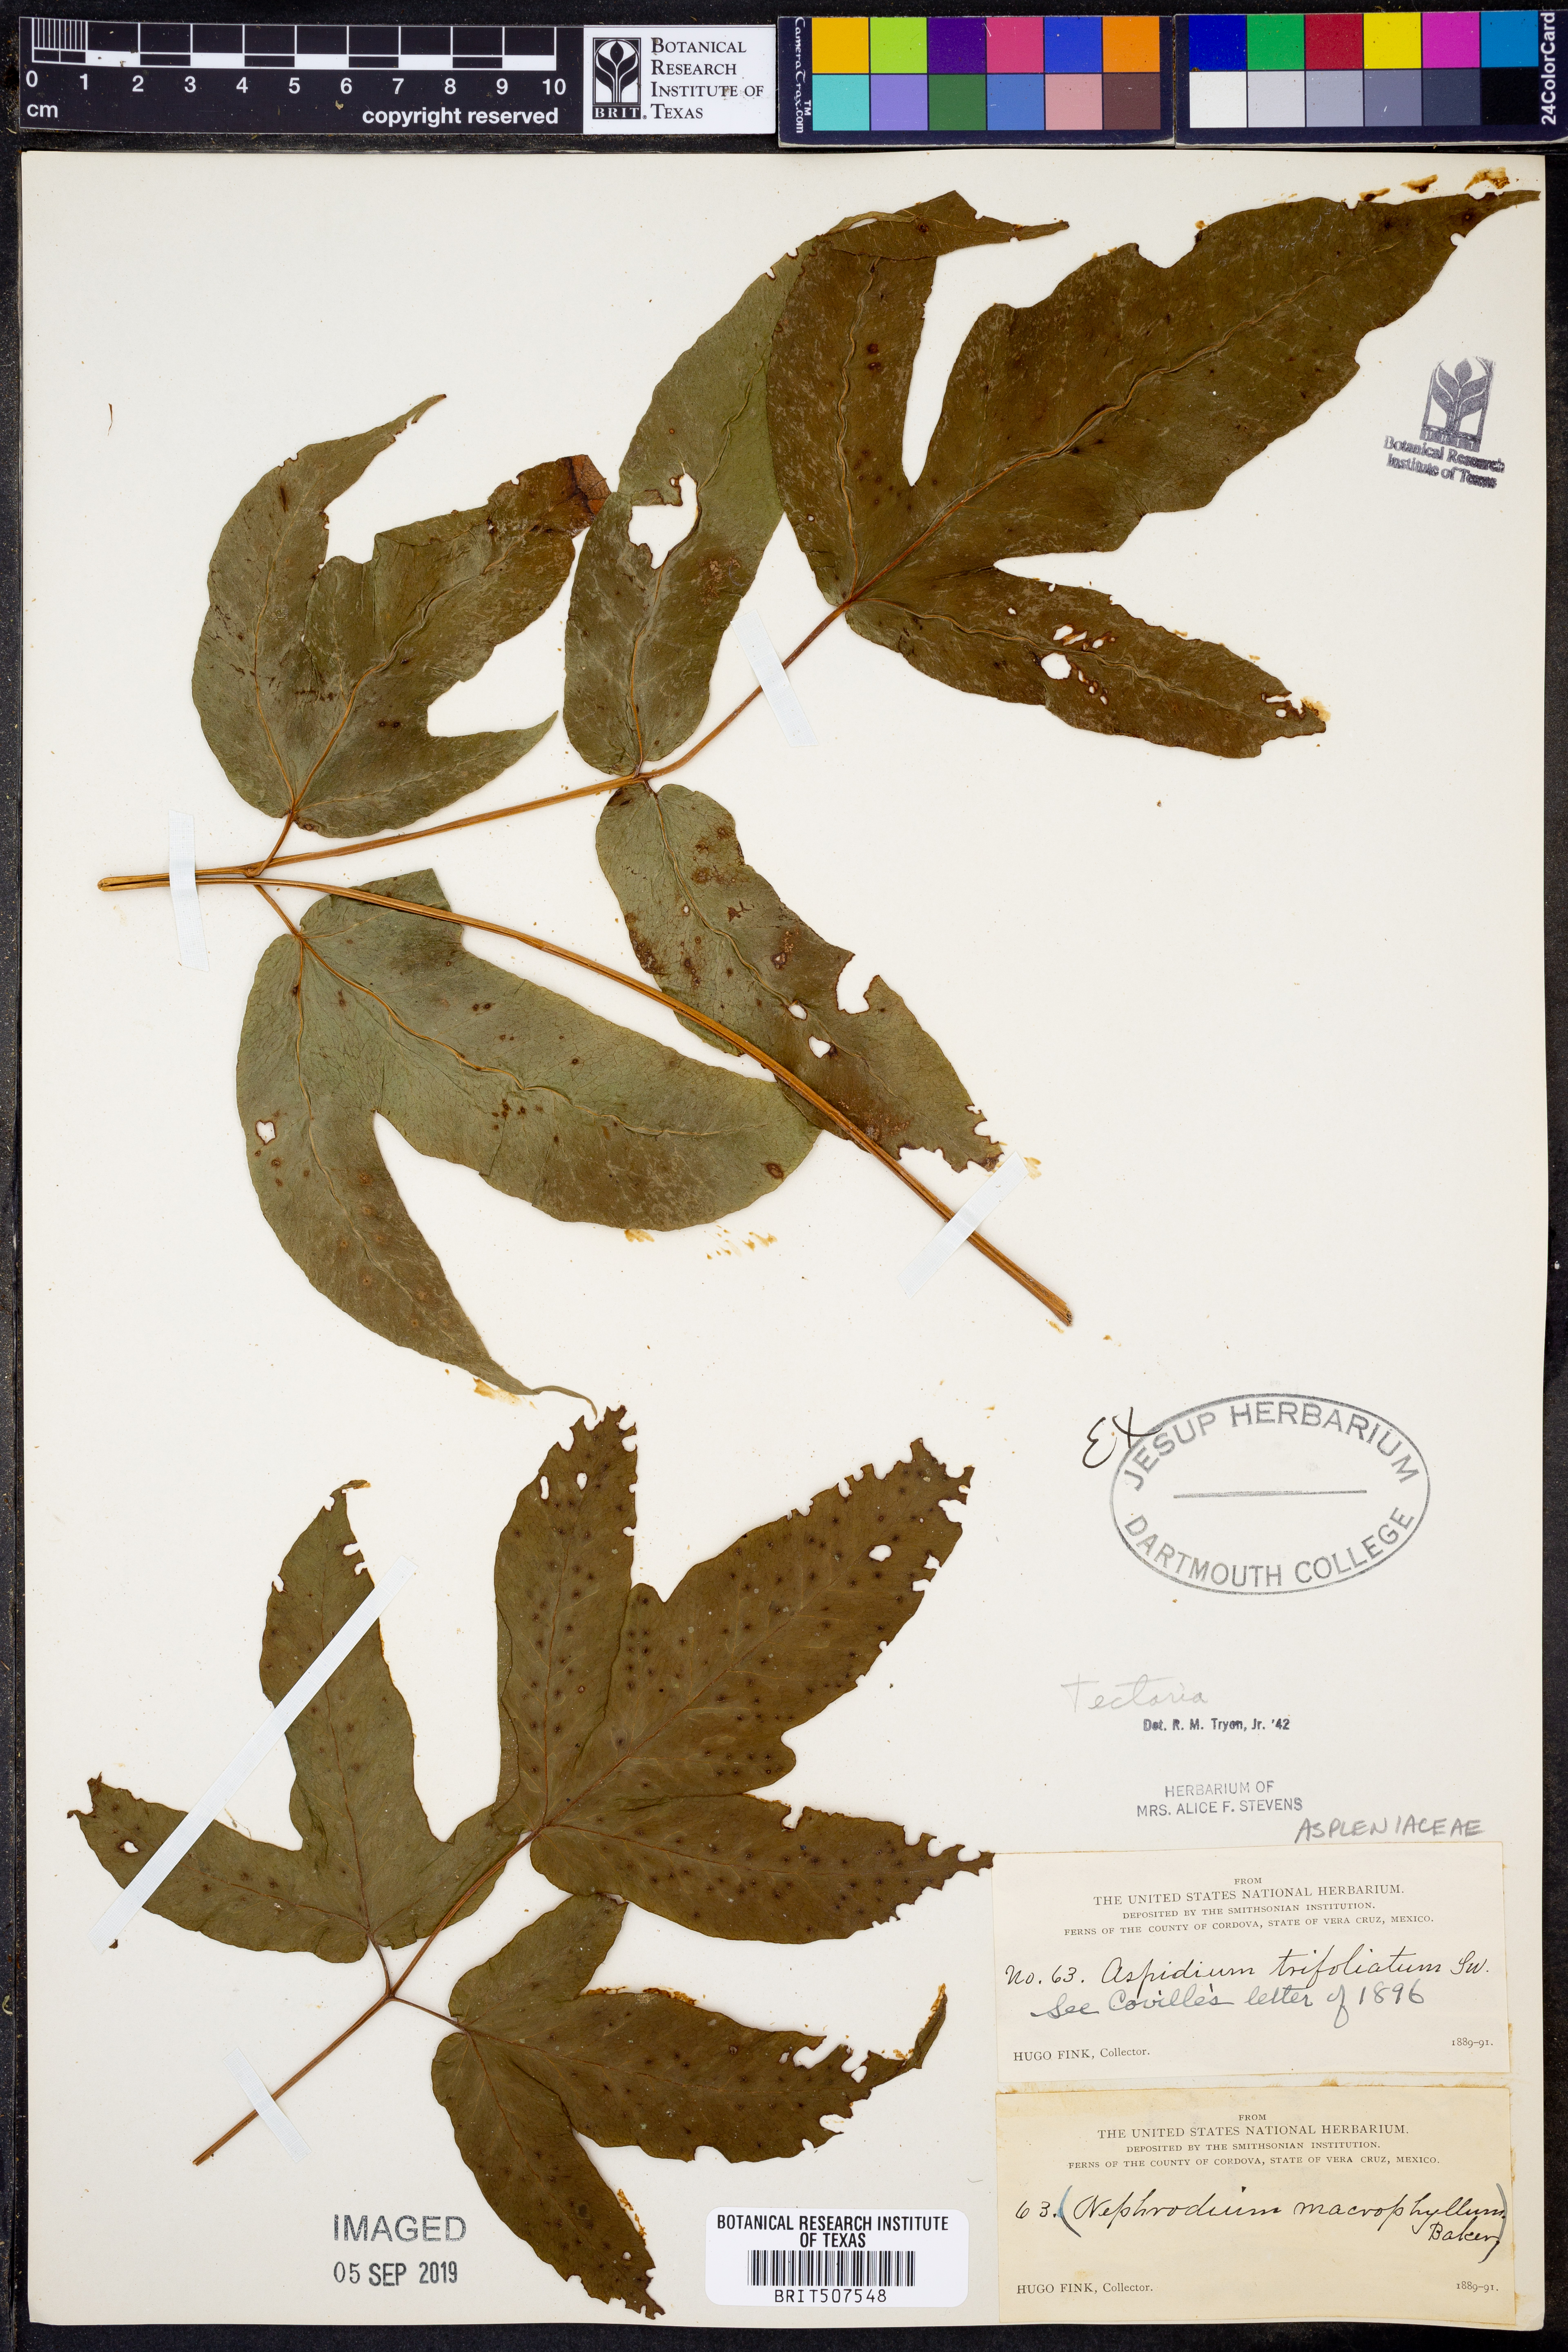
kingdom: Plantae
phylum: Tracheophyta
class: Polypodiopsida
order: Polypodiales
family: Tectariaceae
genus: Tectaria
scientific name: Tectaria
